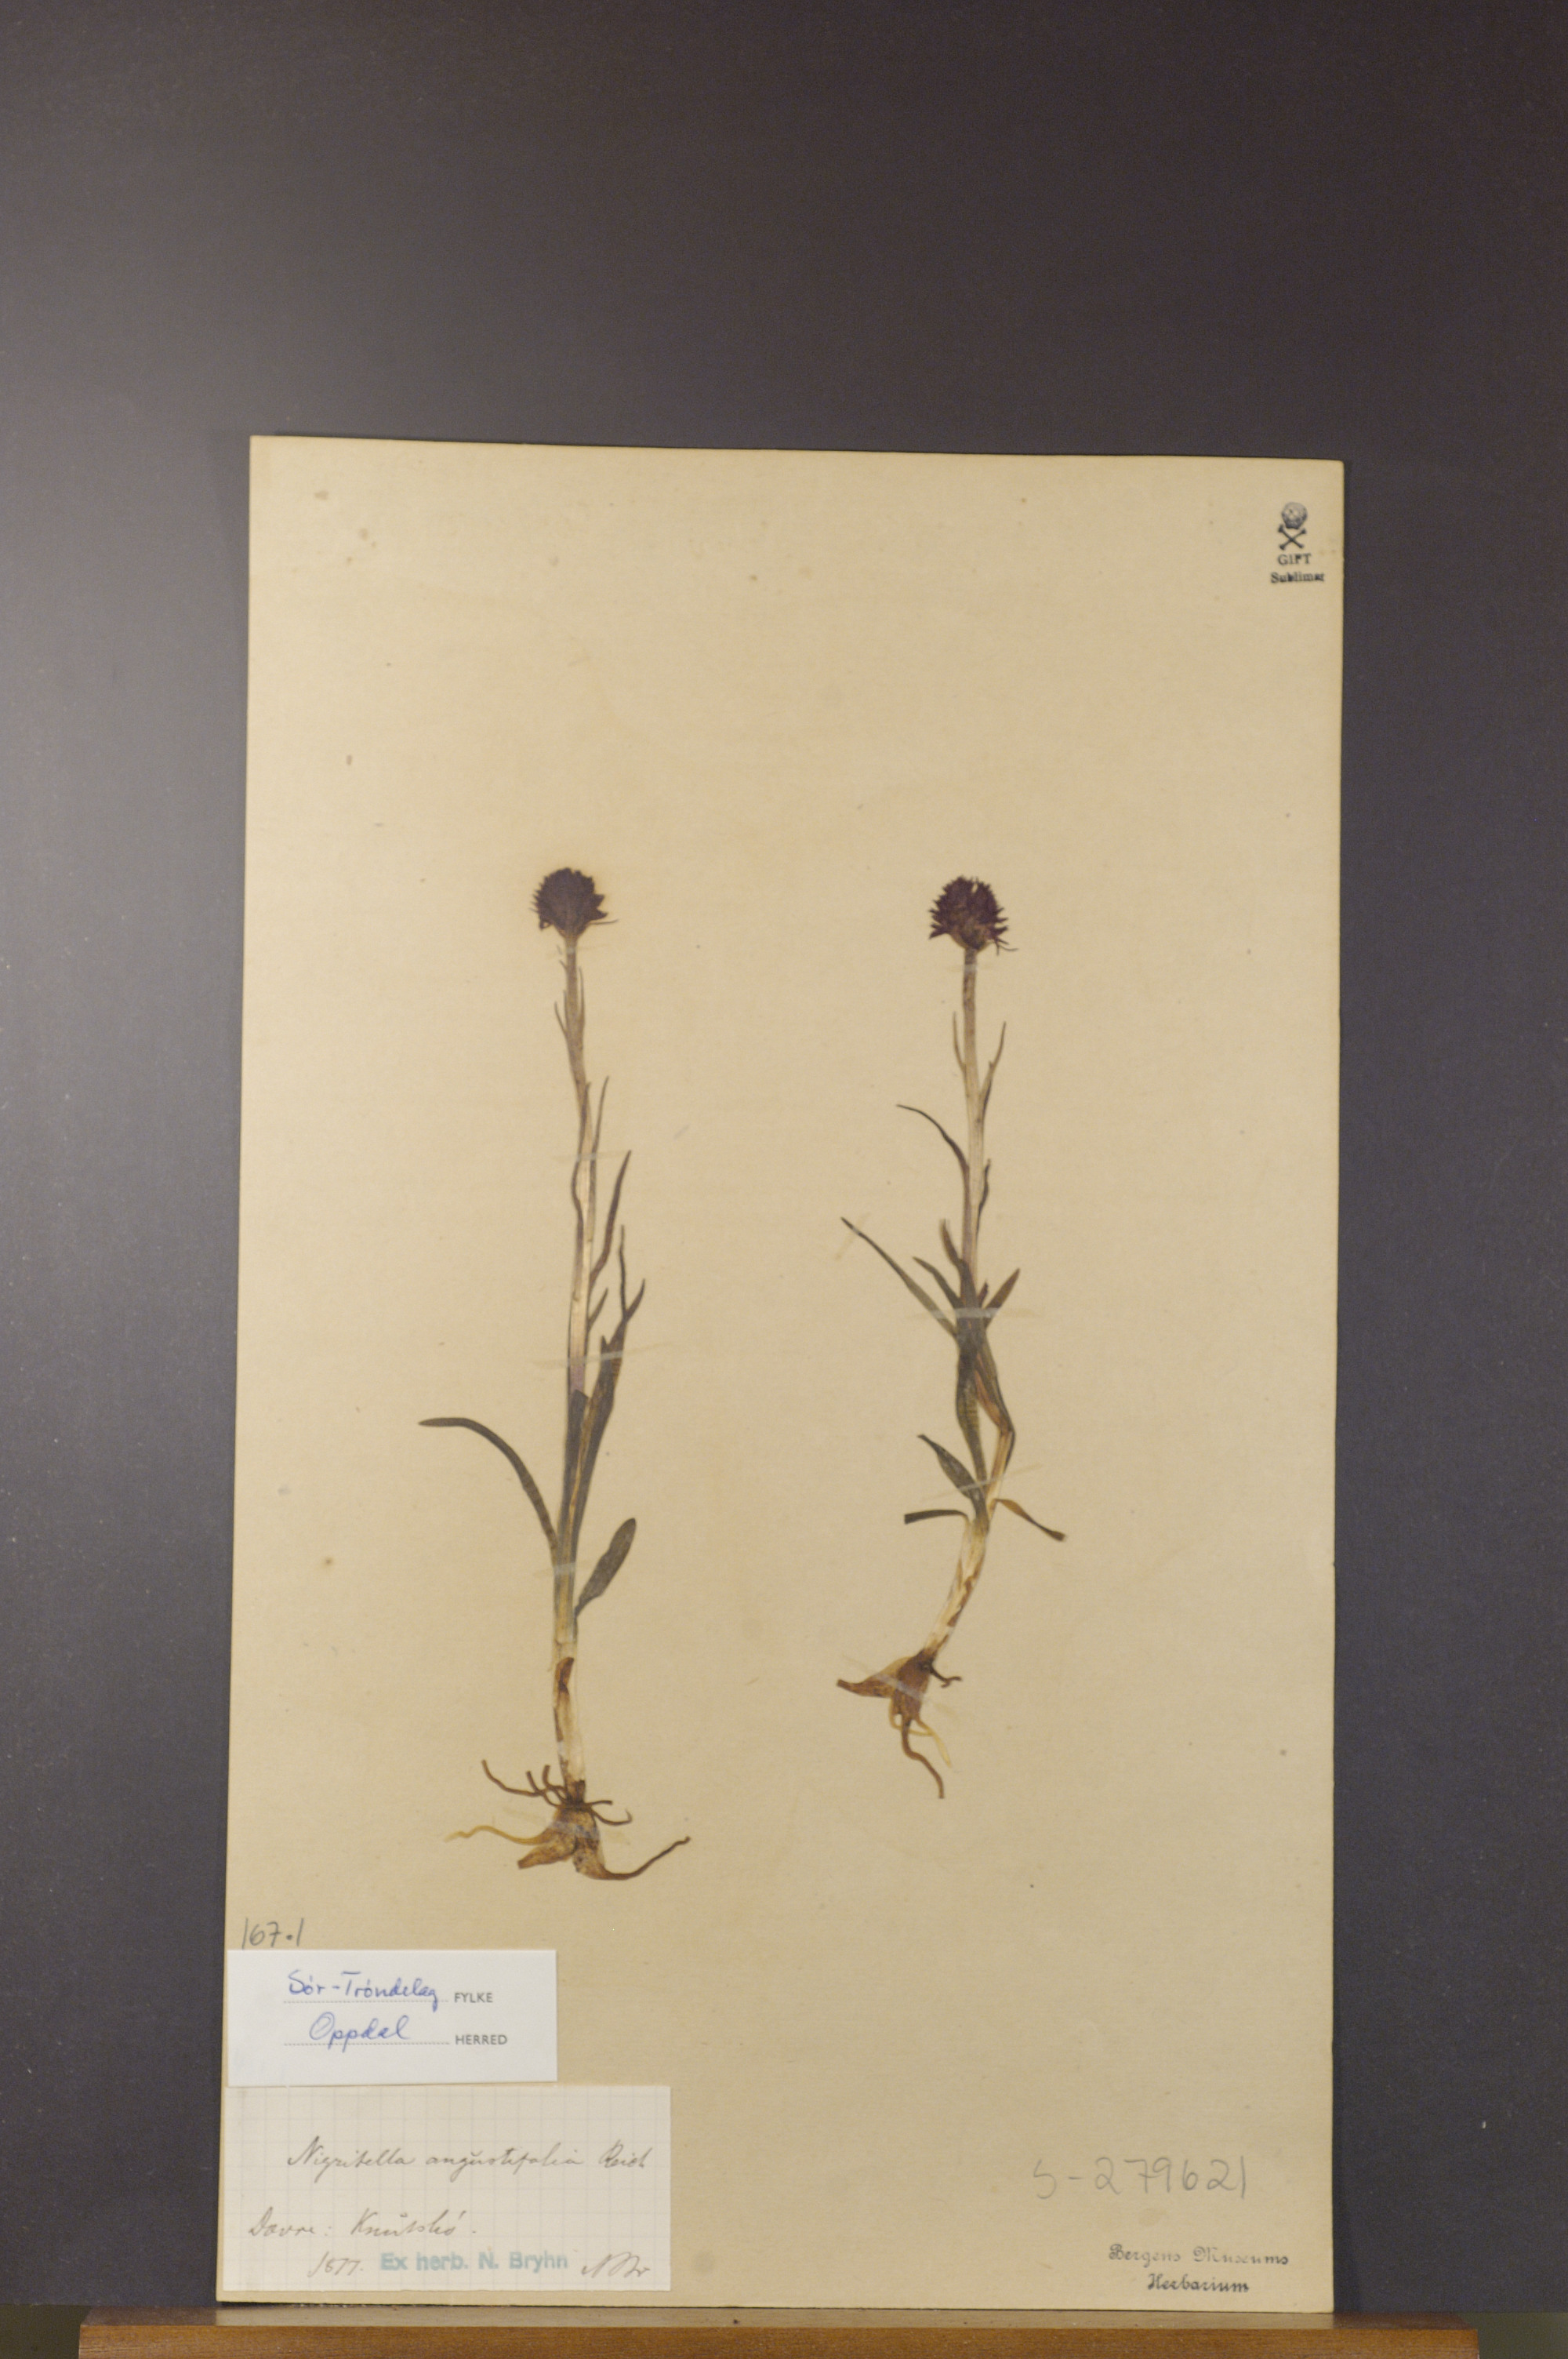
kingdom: Plantae
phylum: Tracheophyta
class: Liliopsida
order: Asparagales
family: Orchidaceae
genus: Gymnadenia
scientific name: Gymnadenia nigra
